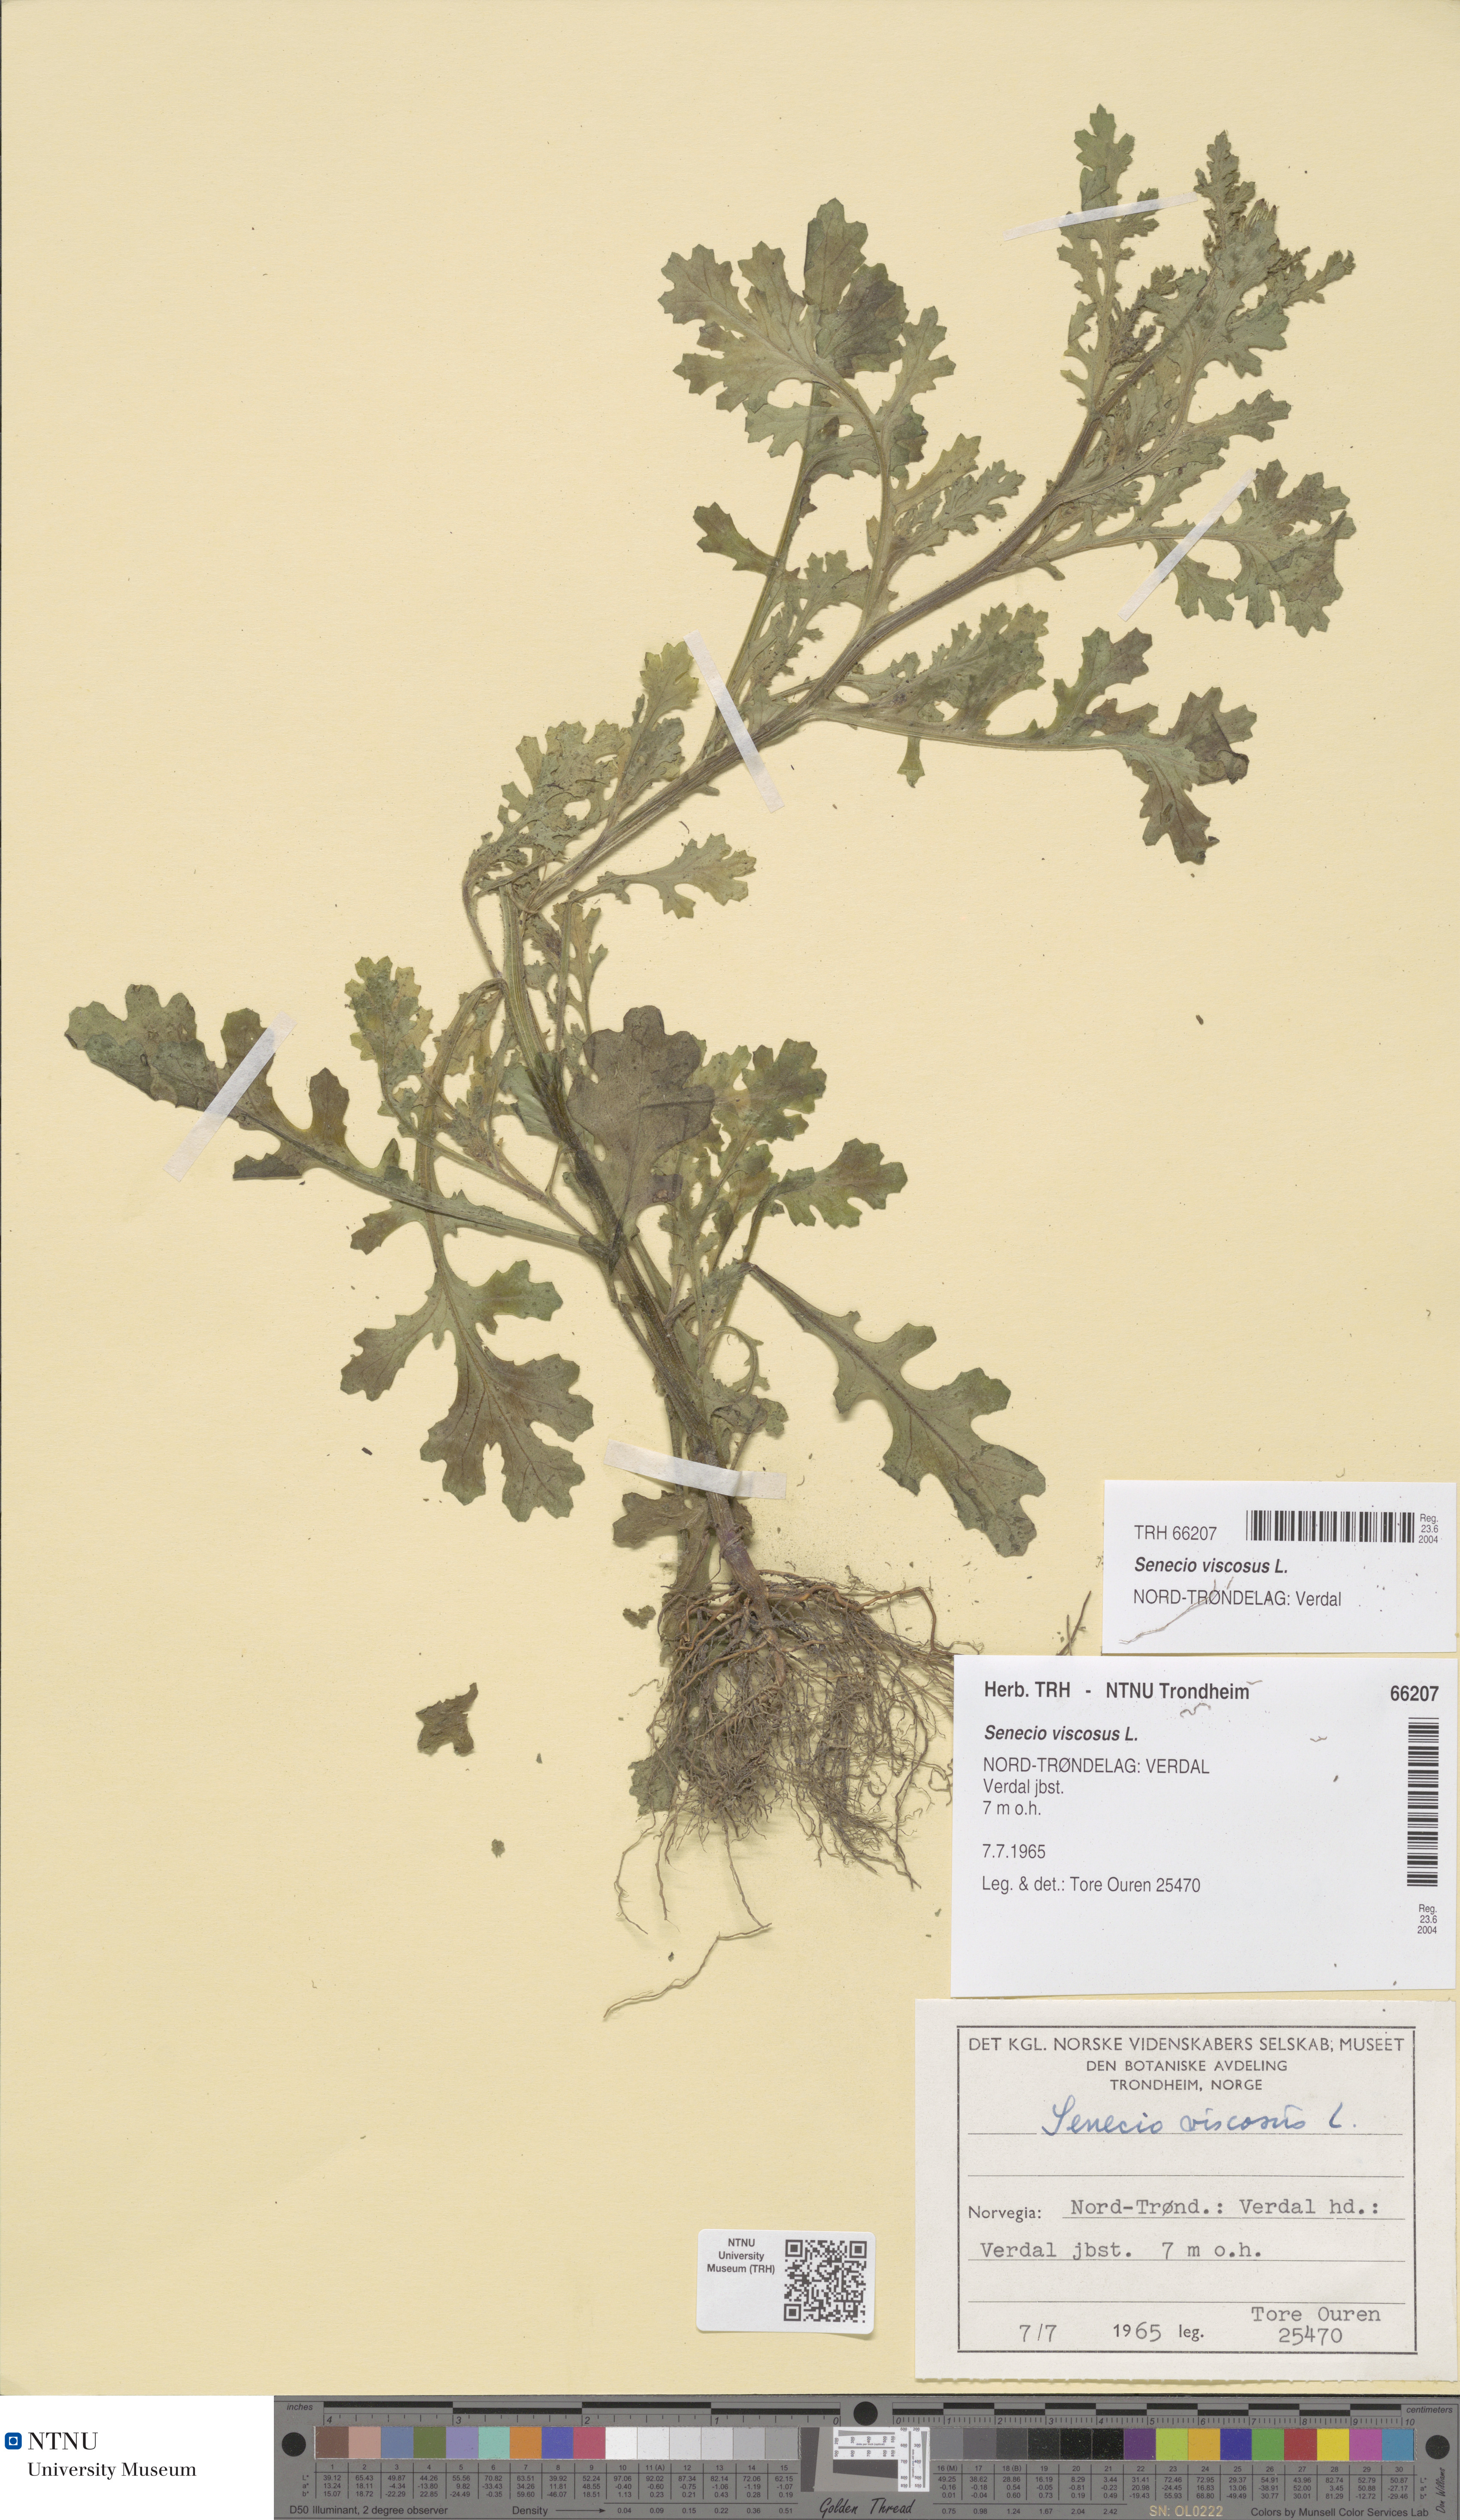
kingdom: Plantae
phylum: Tracheophyta
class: Magnoliopsida
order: Asterales
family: Asteraceae
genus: Senecio
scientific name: Senecio viscosus
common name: Sticky groundsel
